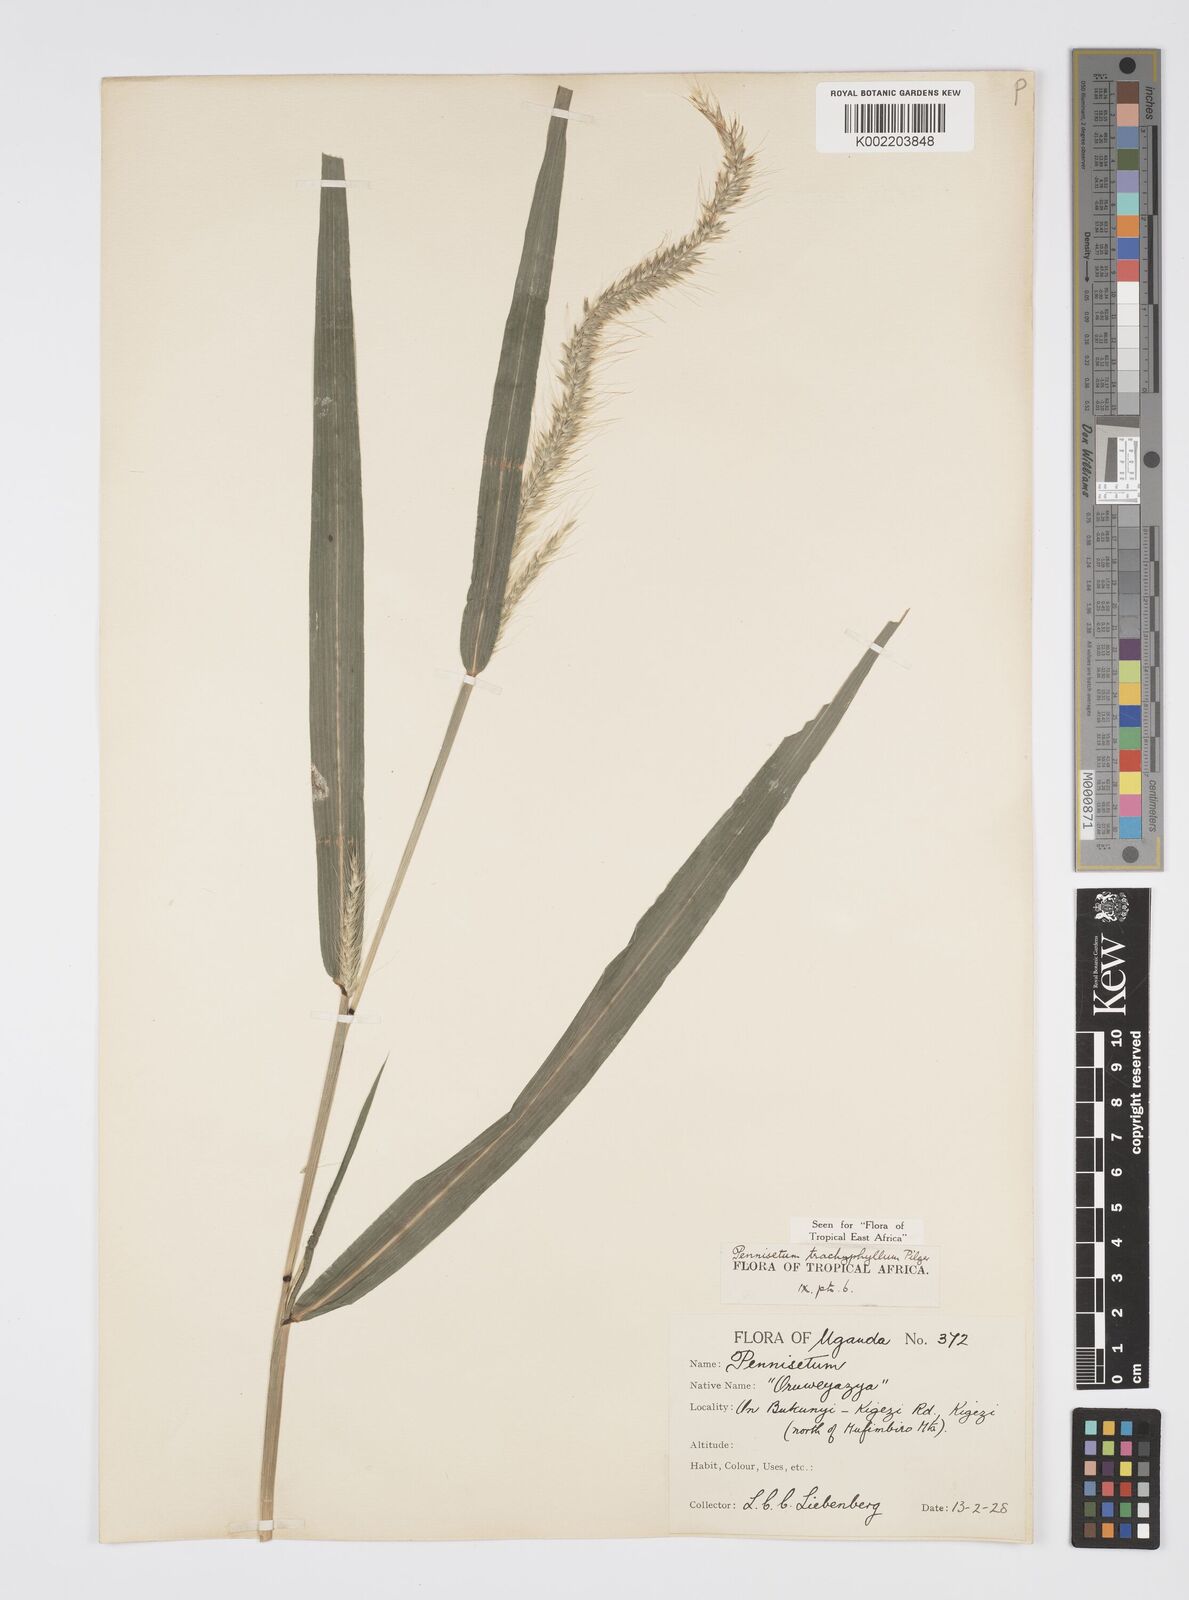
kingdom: Plantae
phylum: Tracheophyta
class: Liliopsida
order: Poales
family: Poaceae
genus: Cenchrus
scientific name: Cenchrus trachyphyllus
